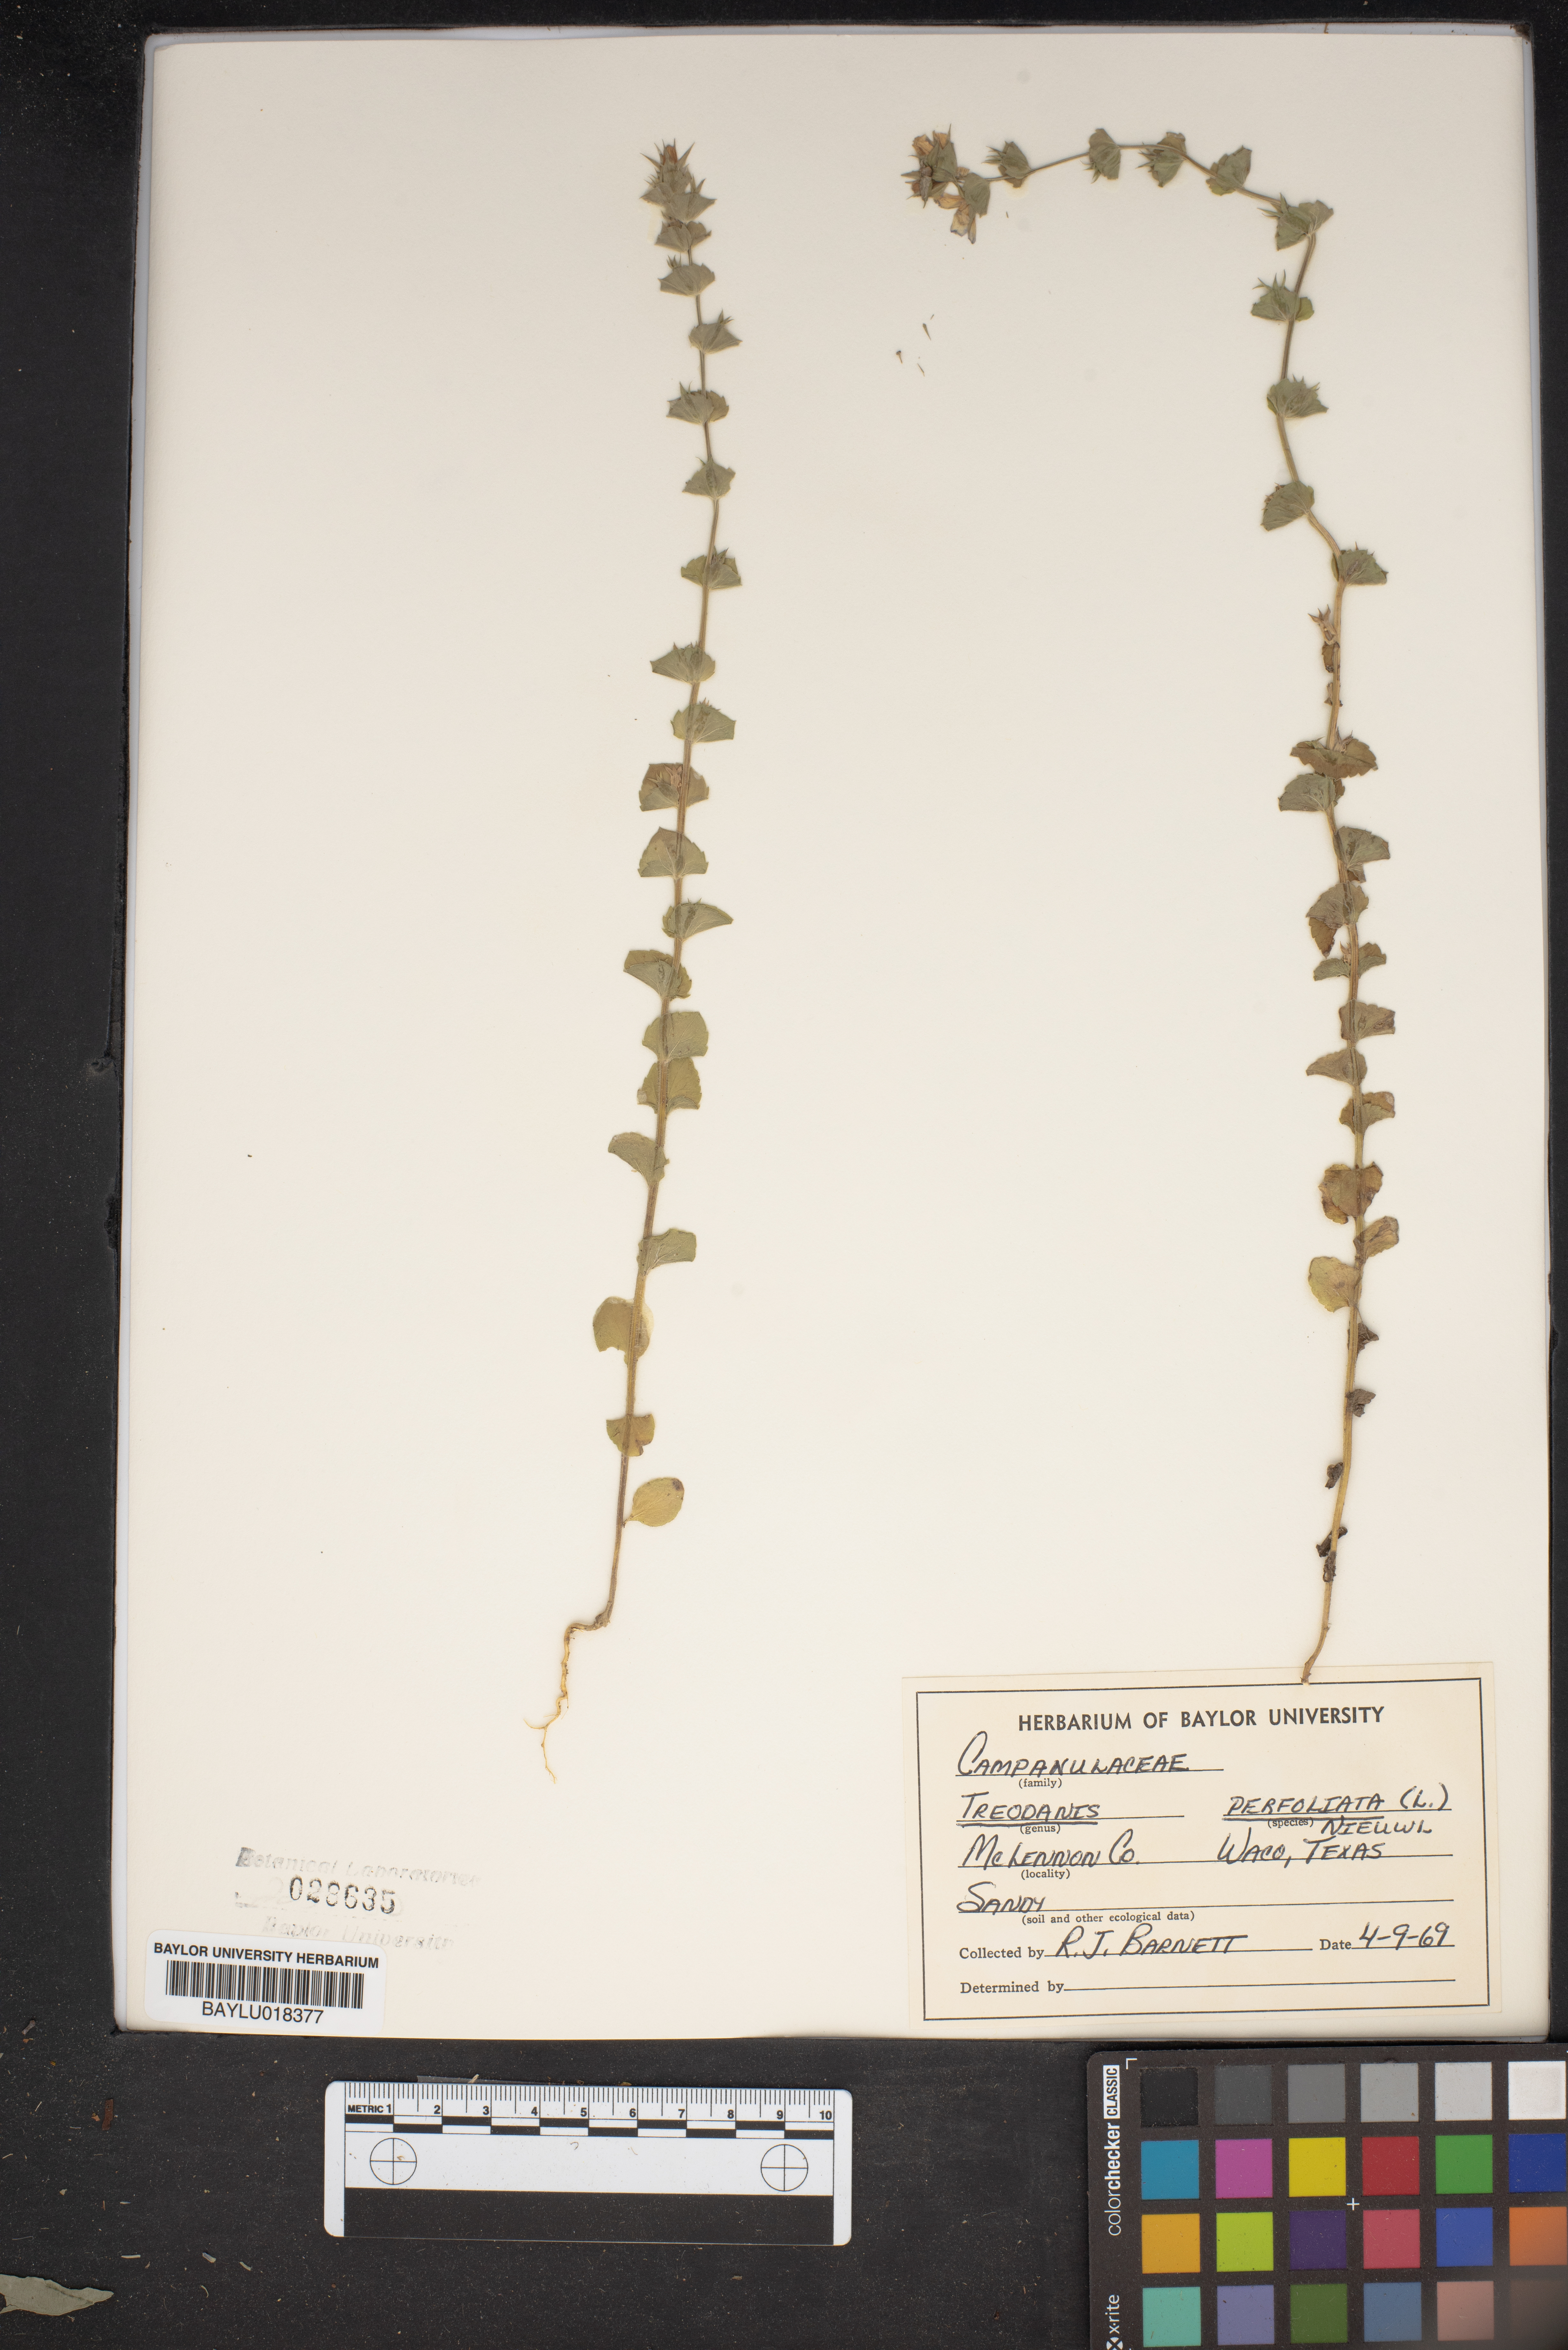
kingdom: Plantae
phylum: Tracheophyta
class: Magnoliopsida
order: Asterales
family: Campanulaceae
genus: Triodanis
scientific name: Triodanis perfoliata
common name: Clasping venus' looking-glass
